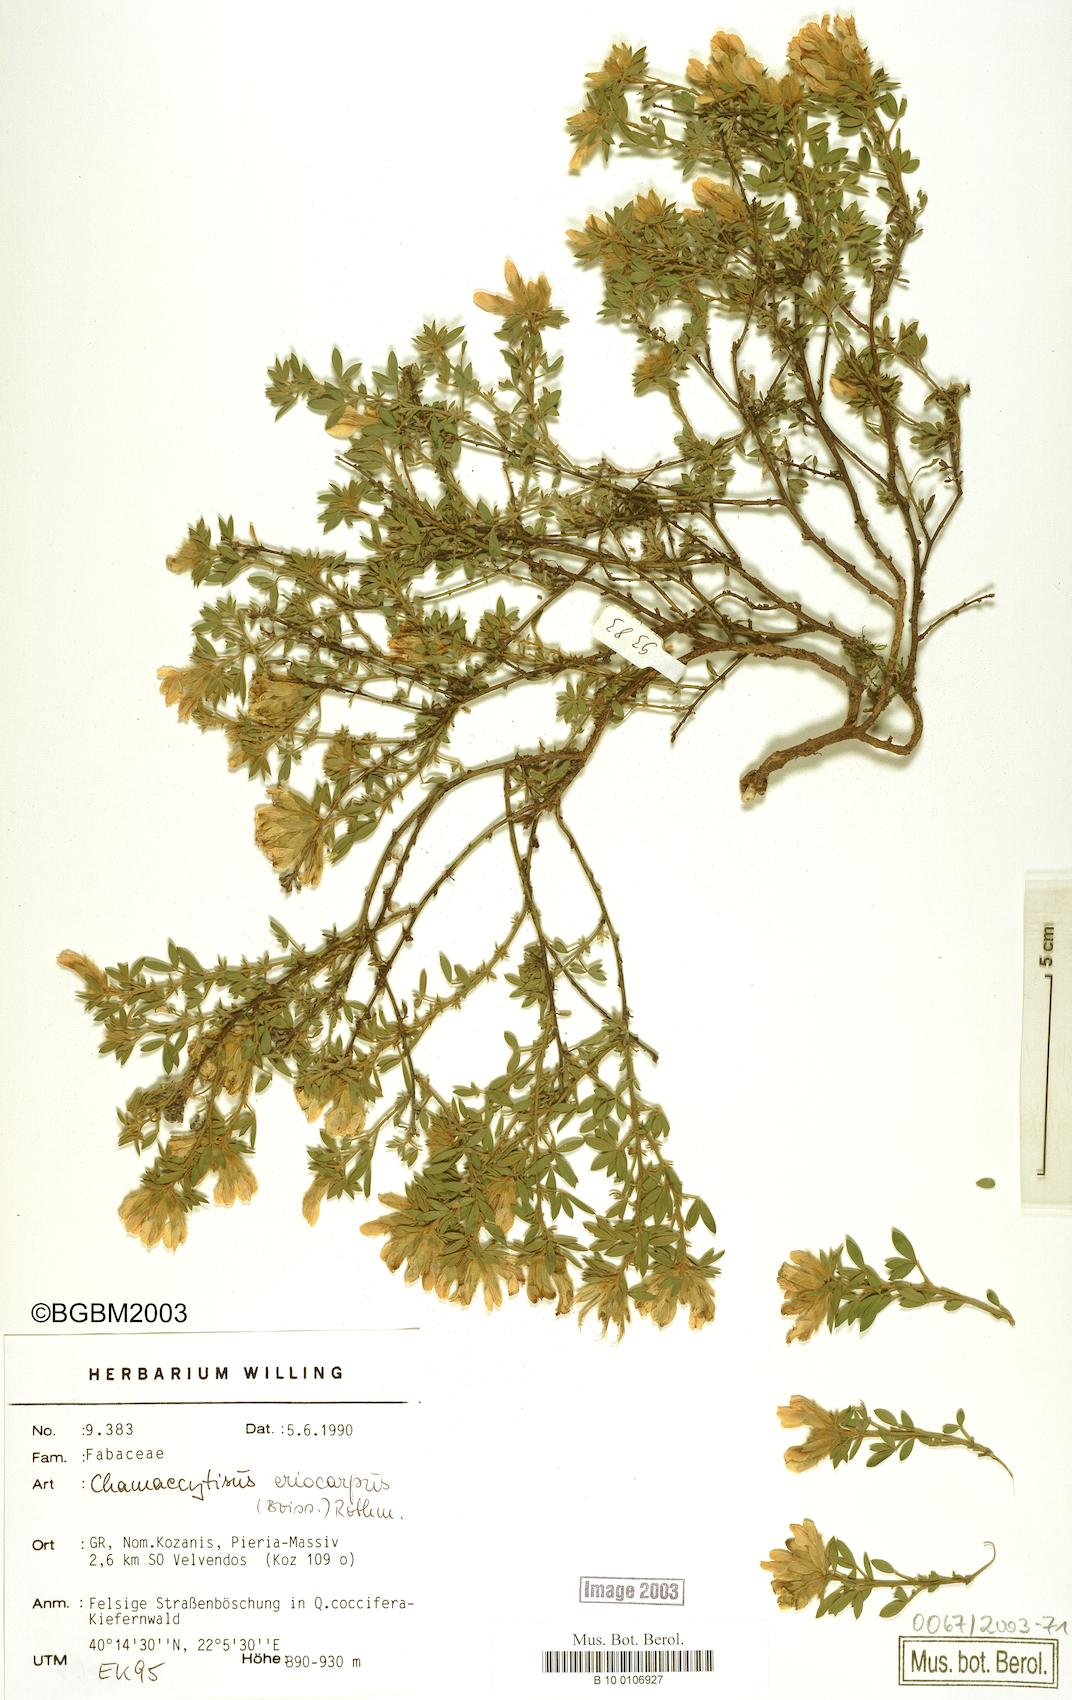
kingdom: Plantae
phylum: Tracheophyta
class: Magnoliopsida
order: Fabales
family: Fabaceae
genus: Chamaecytisus
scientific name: Chamaecytisus eriocarpus
